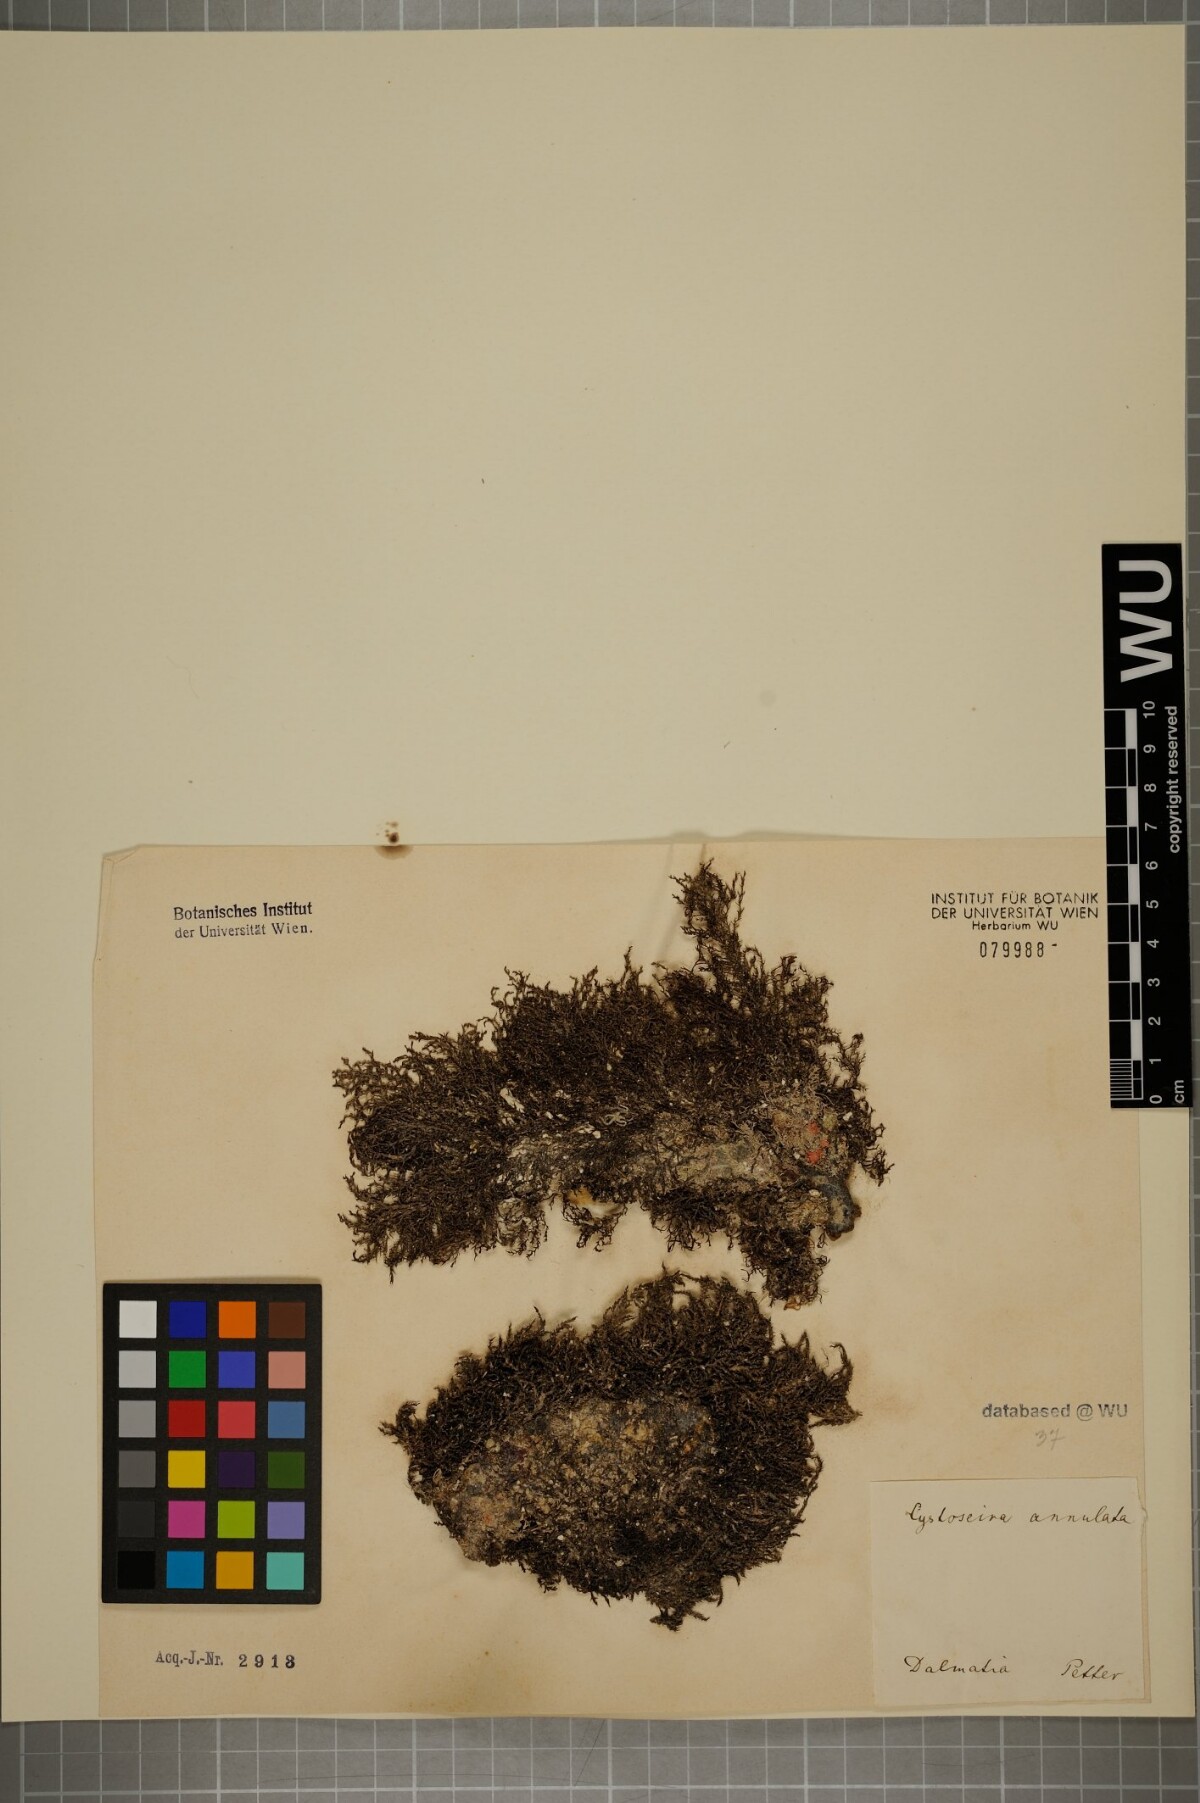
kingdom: Chromista
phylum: Ochrophyta
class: Phaeophyceae
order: Fucales
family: Sargassaceae
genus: Cystoseira
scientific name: Cystoseira
